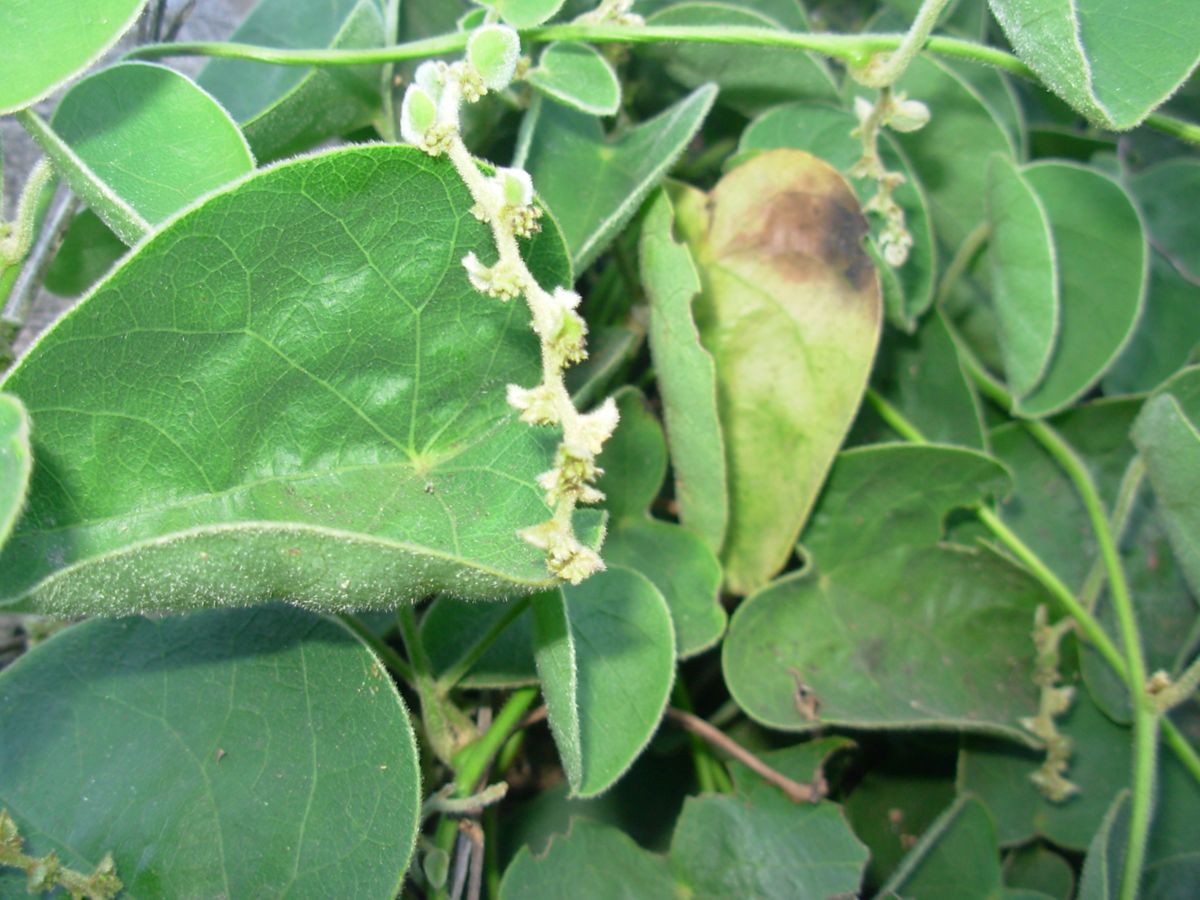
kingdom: Plantae
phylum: Tracheophyta
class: Magnoliopsida
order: Ranunculales
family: Menispermaceae
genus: Cissampelos
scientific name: Cissampelos pareira
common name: Velvetleaf
